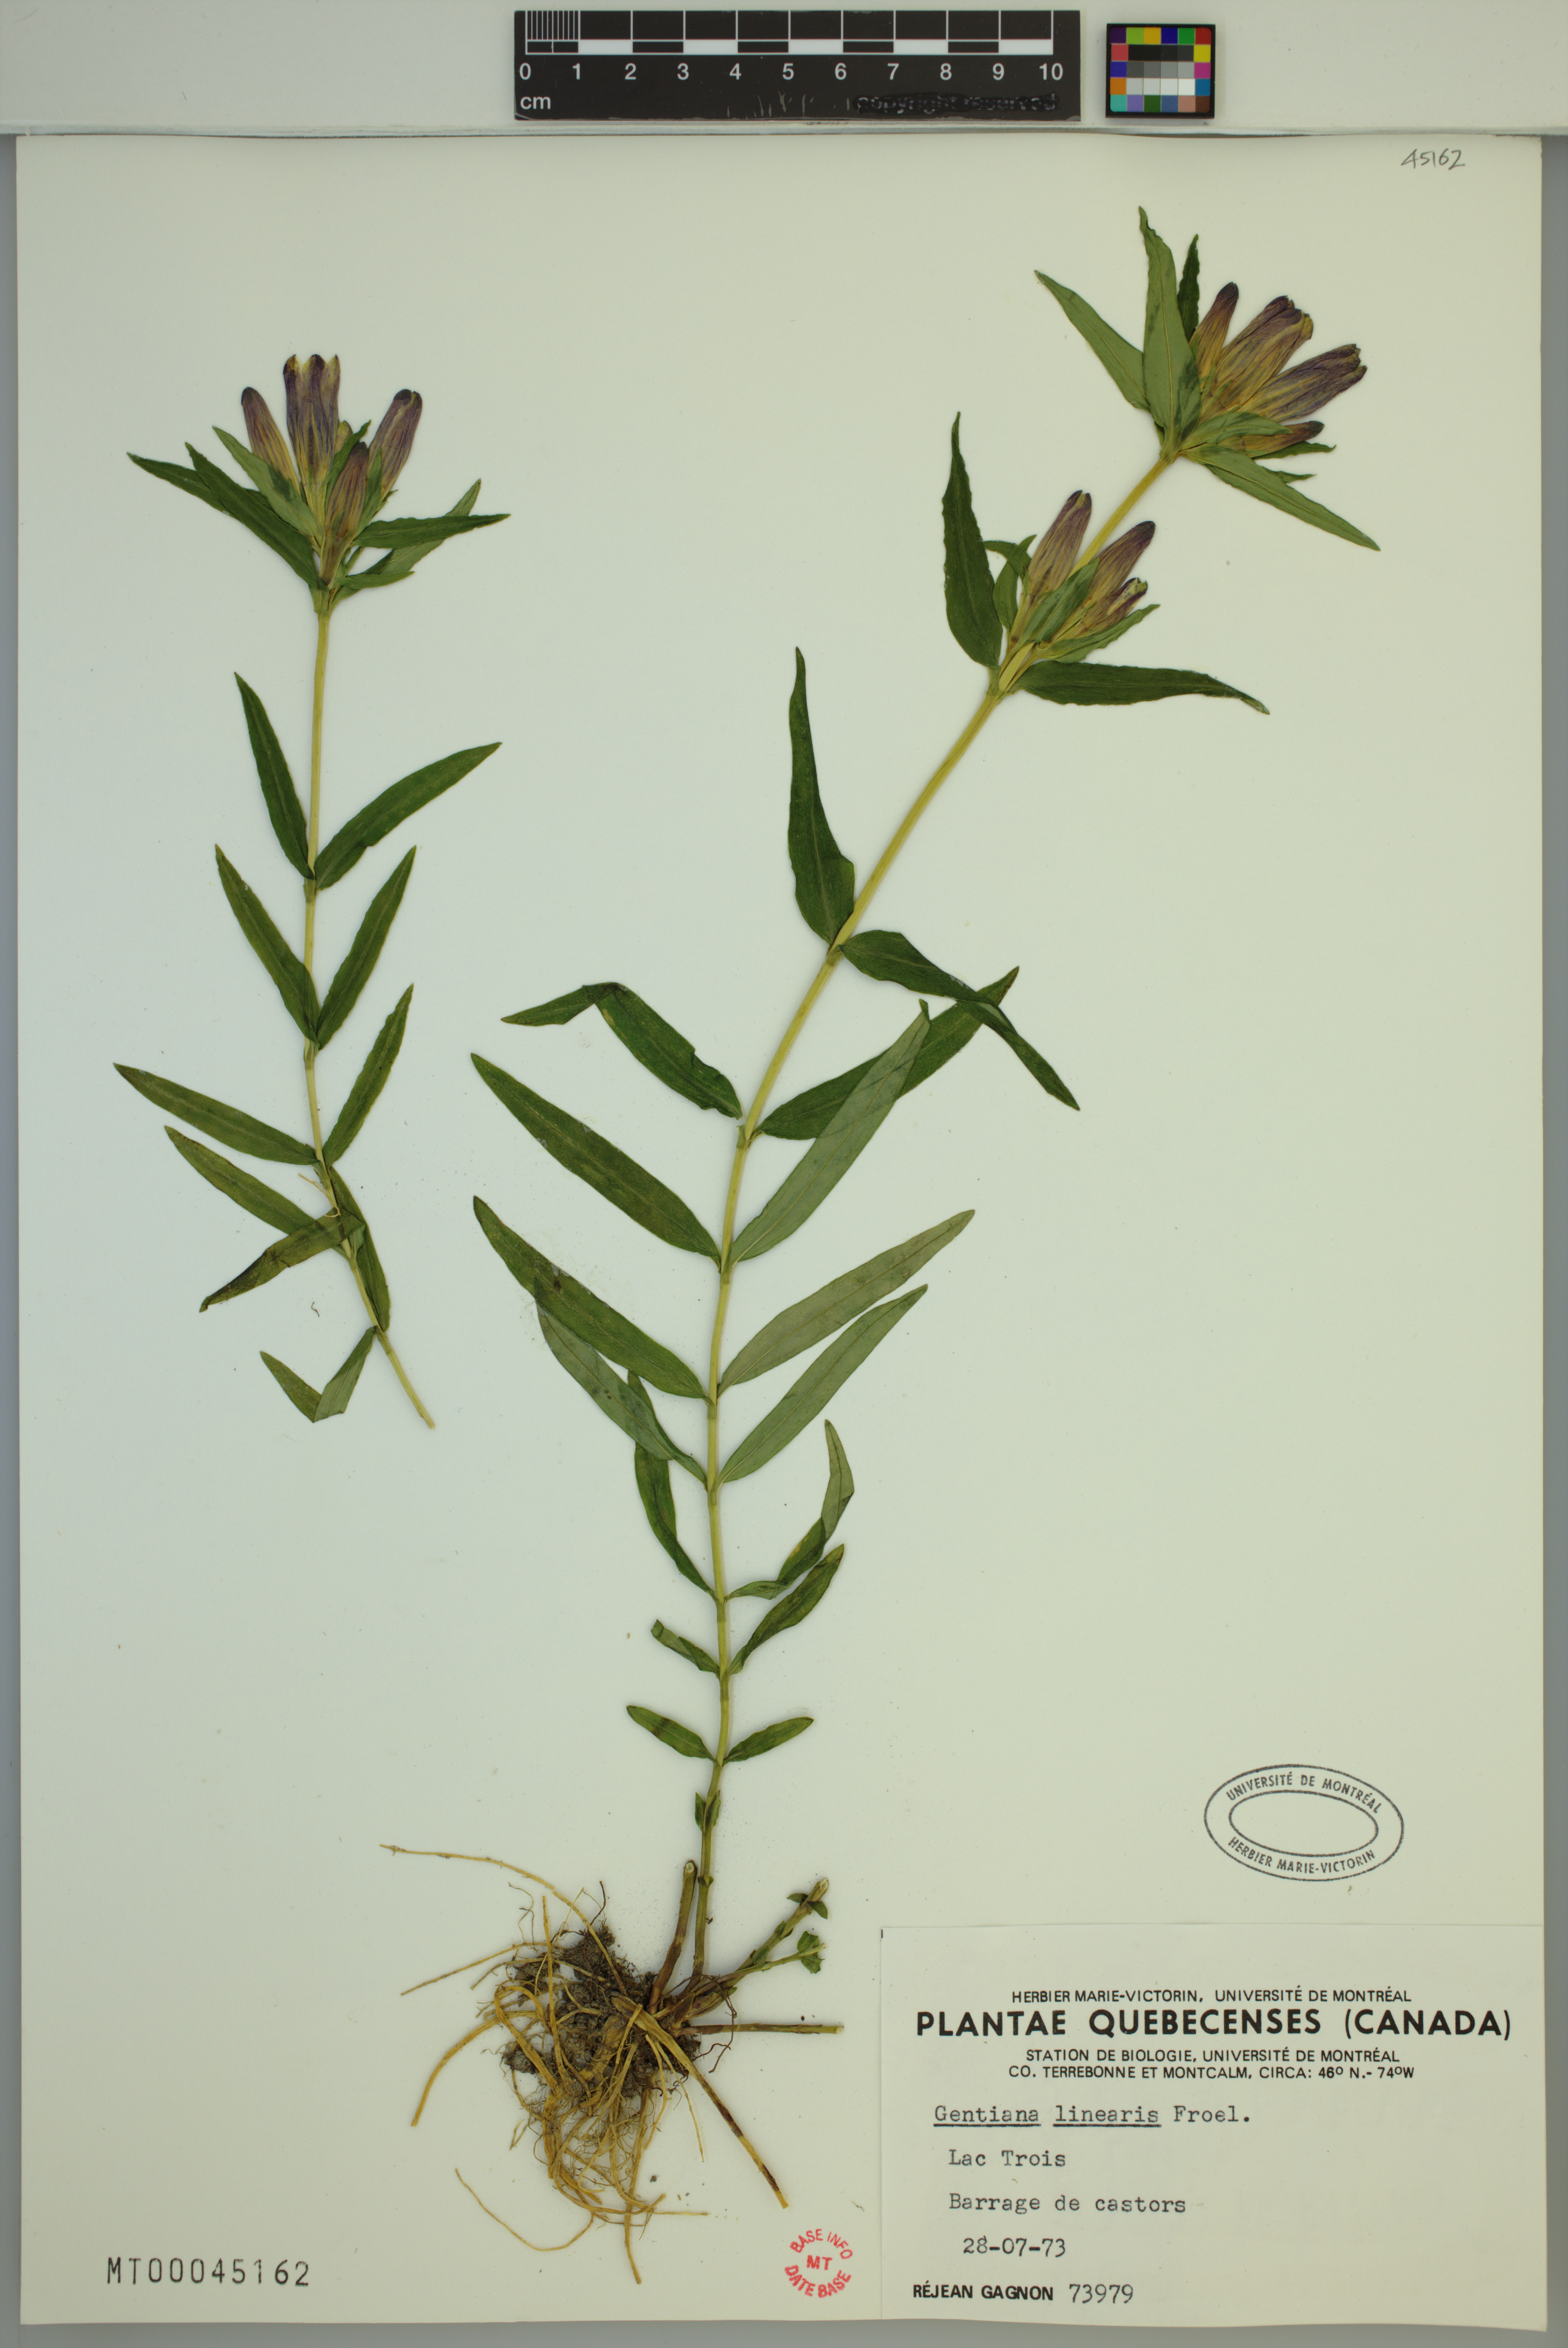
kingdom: Plantae
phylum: Tracheophyta
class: Magnoliopsida
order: Gentianales
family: Gentianaceae
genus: Gentiana
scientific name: Gentiana linearis
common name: Bastard gentian
